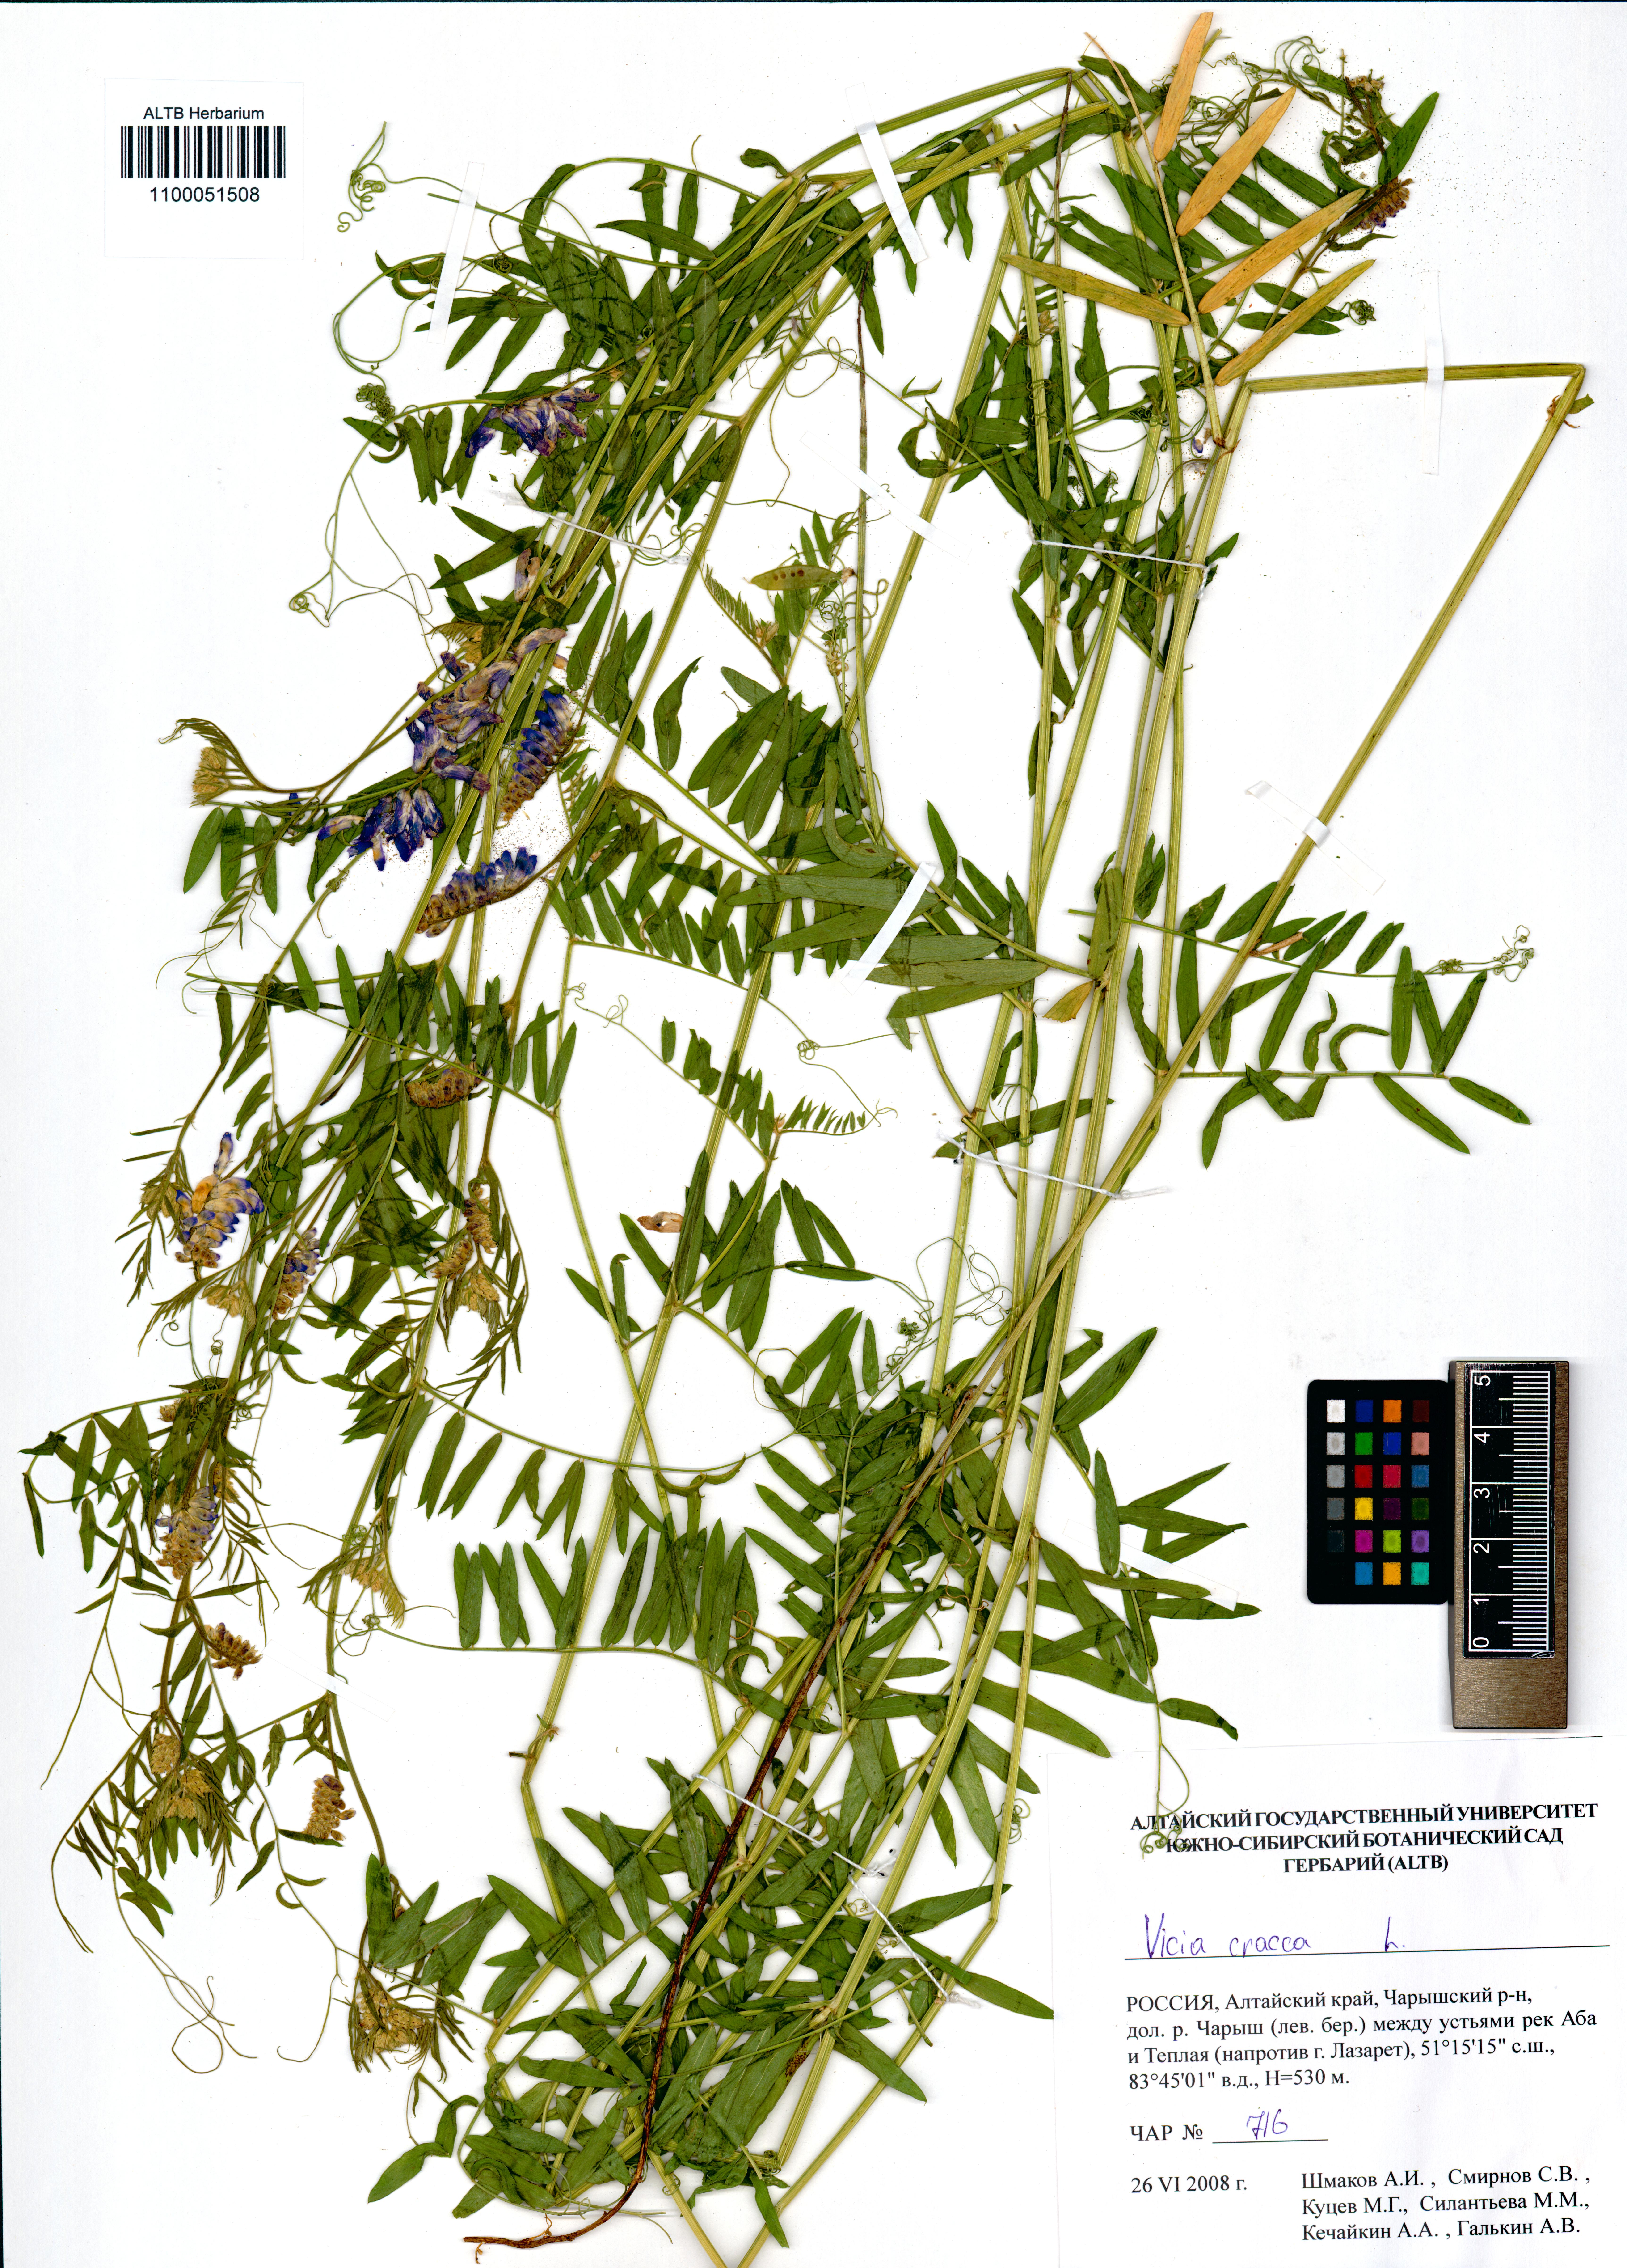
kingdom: Plantae
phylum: Tracheophyta
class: Magnoliopsida
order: Fabales
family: Fabaceae
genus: Vicia
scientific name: Vicia cracca
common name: Bird vetch
